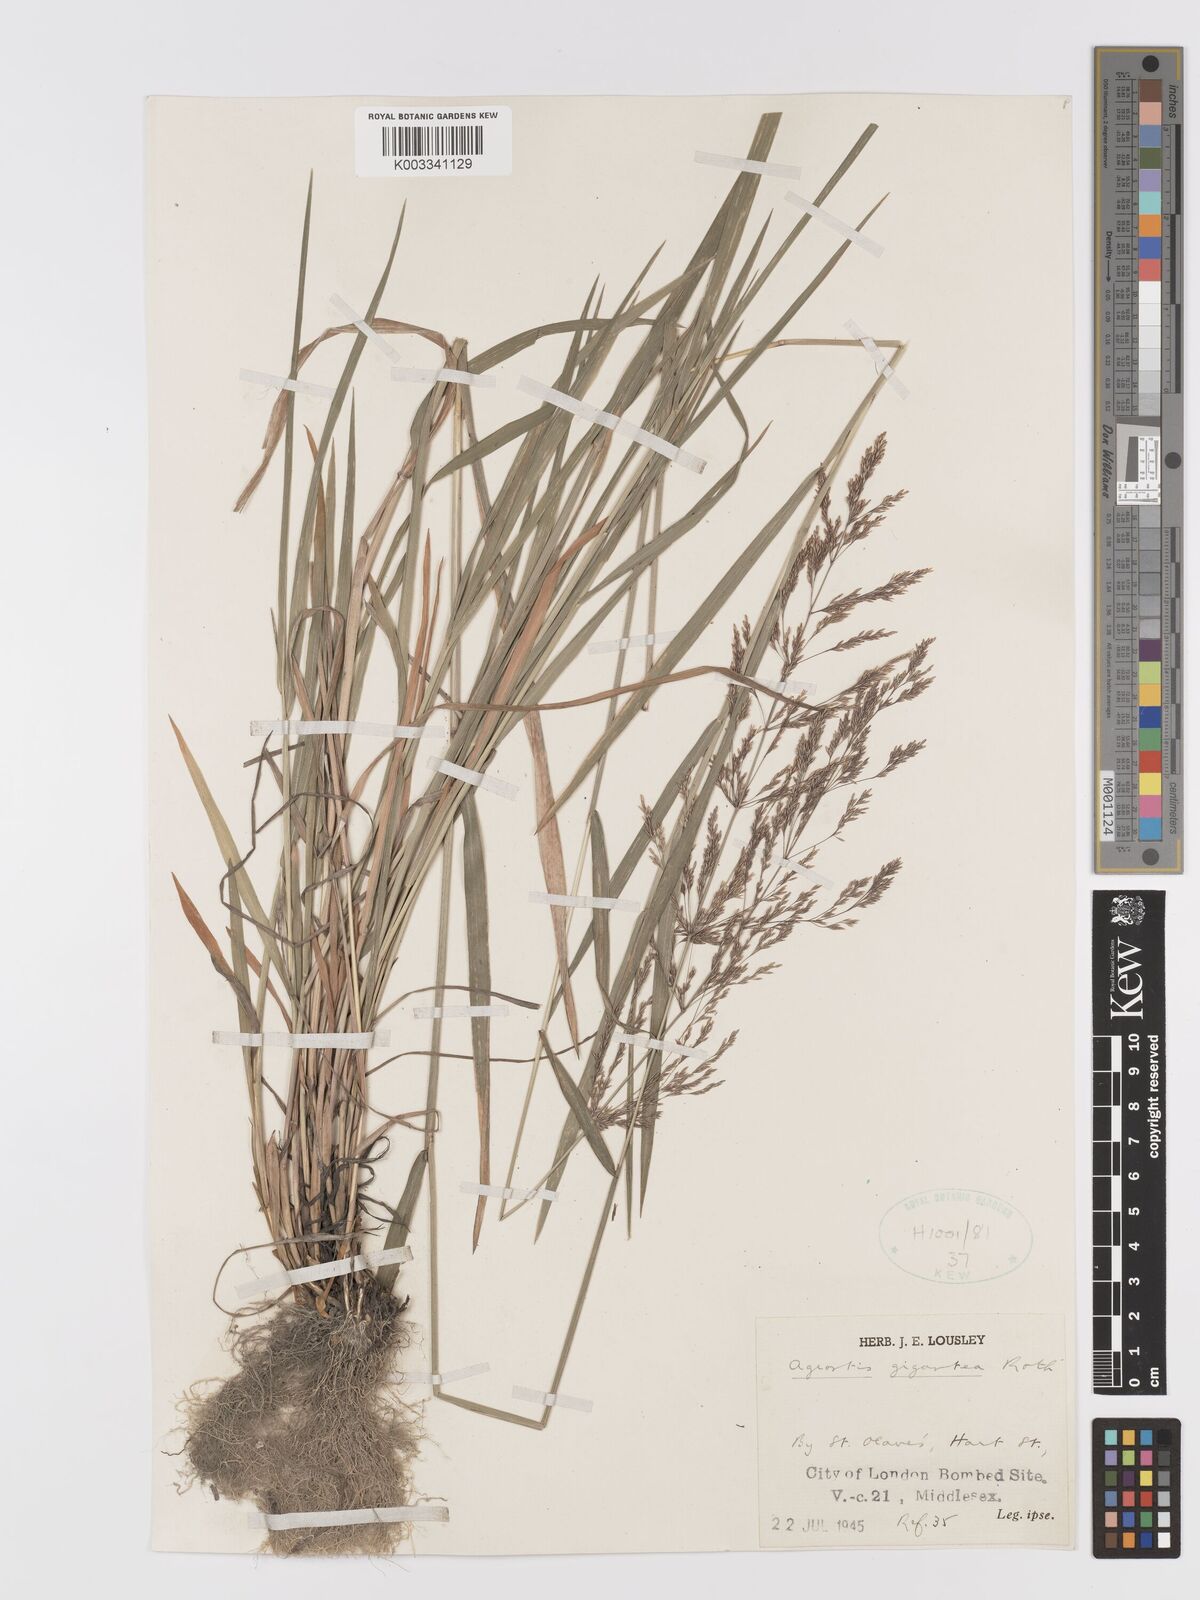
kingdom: Plantae
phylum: Tracheophyta
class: Liliopsida
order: Poales
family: Poaceae
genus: Agrostis
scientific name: Agrostis gigantea
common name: Black bent
